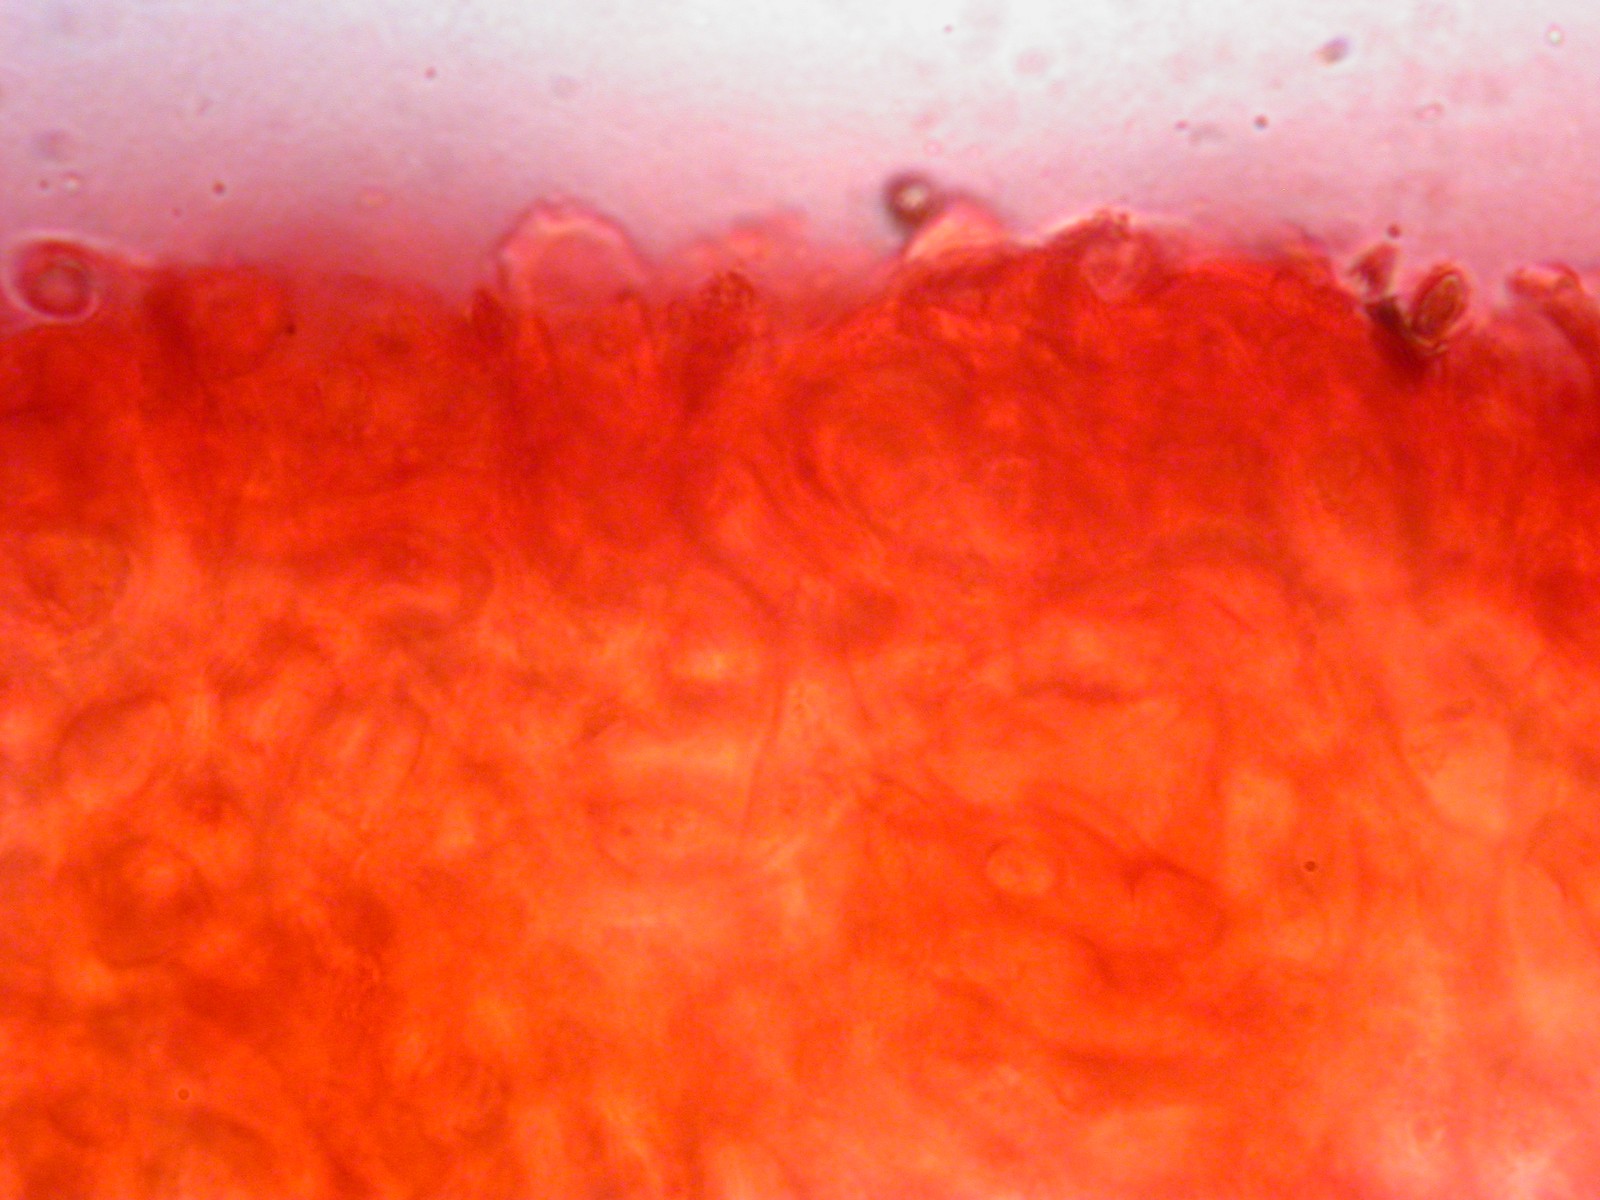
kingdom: Fungi
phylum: Ascomycota
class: Pezizomycetes
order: Pezizales
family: Tuberaceae
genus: Tuber
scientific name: Tuber excavatum
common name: udhulet trøffel
